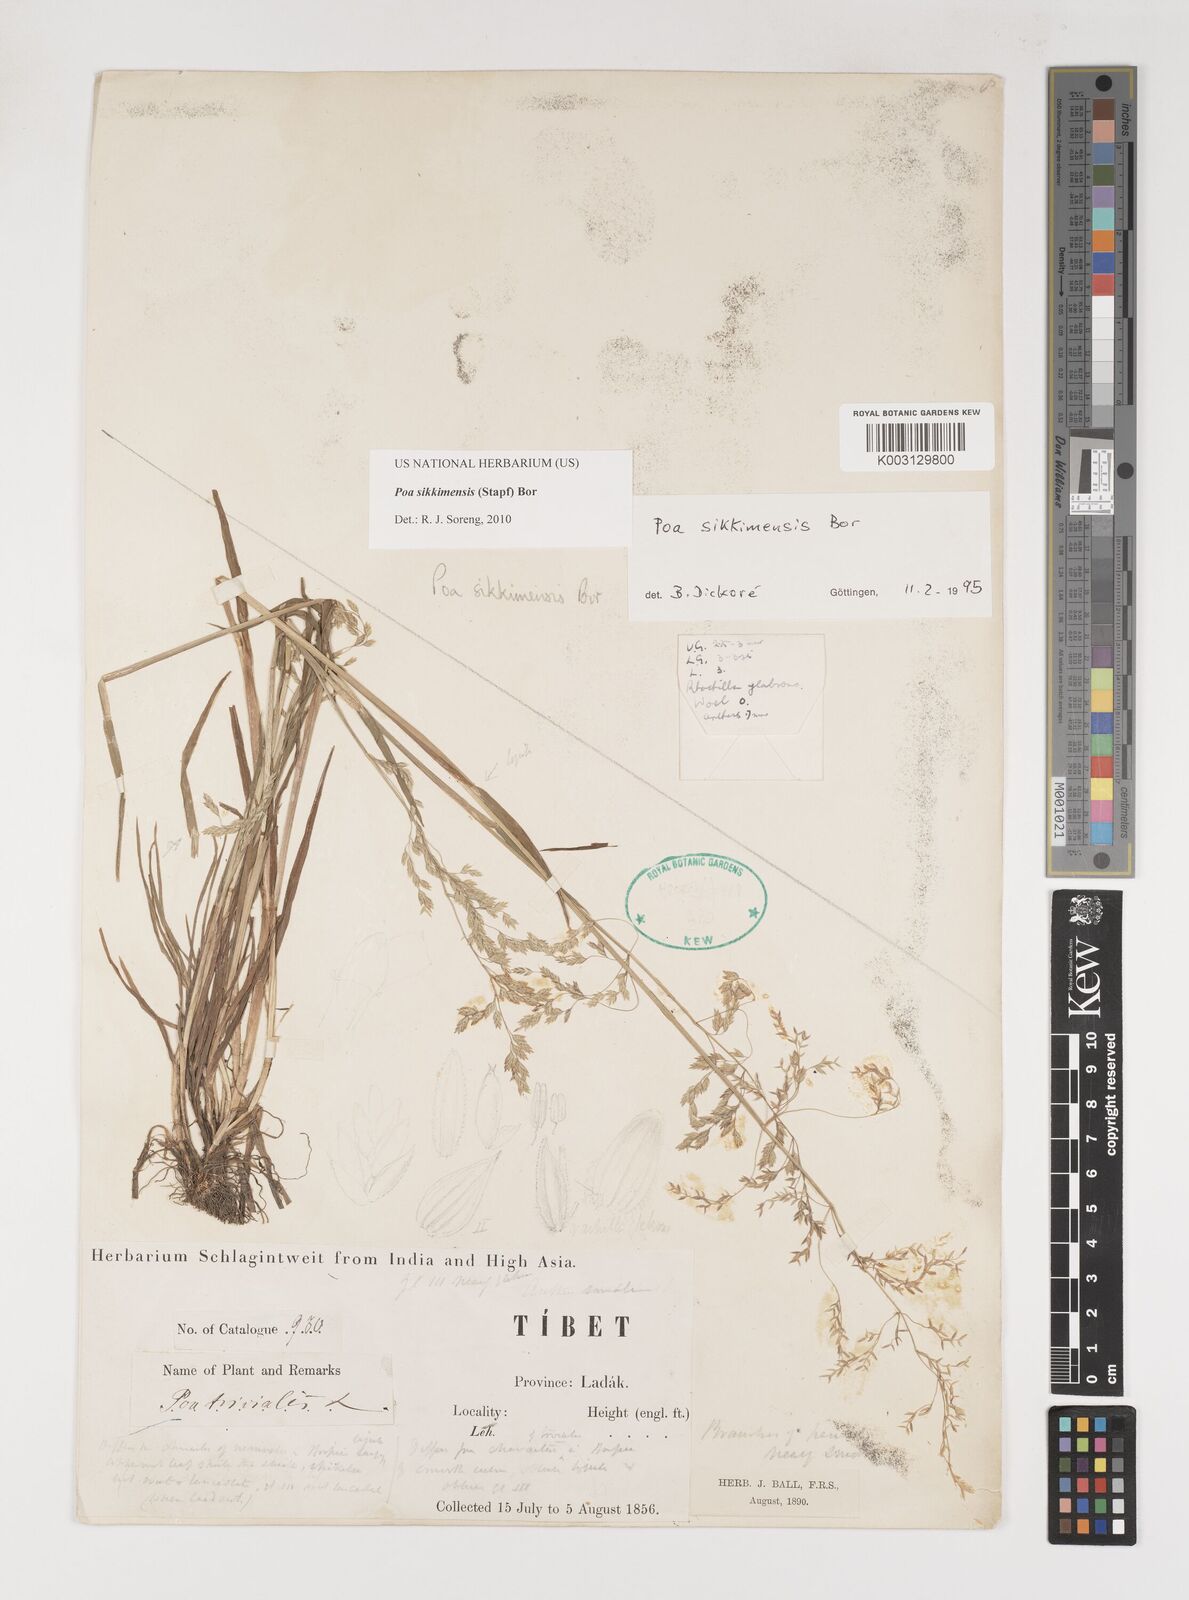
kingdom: Plantae
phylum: Tracheophyta
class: Liliopsida
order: Poales
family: Poaceae
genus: Poa
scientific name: Poa sikkimensis
